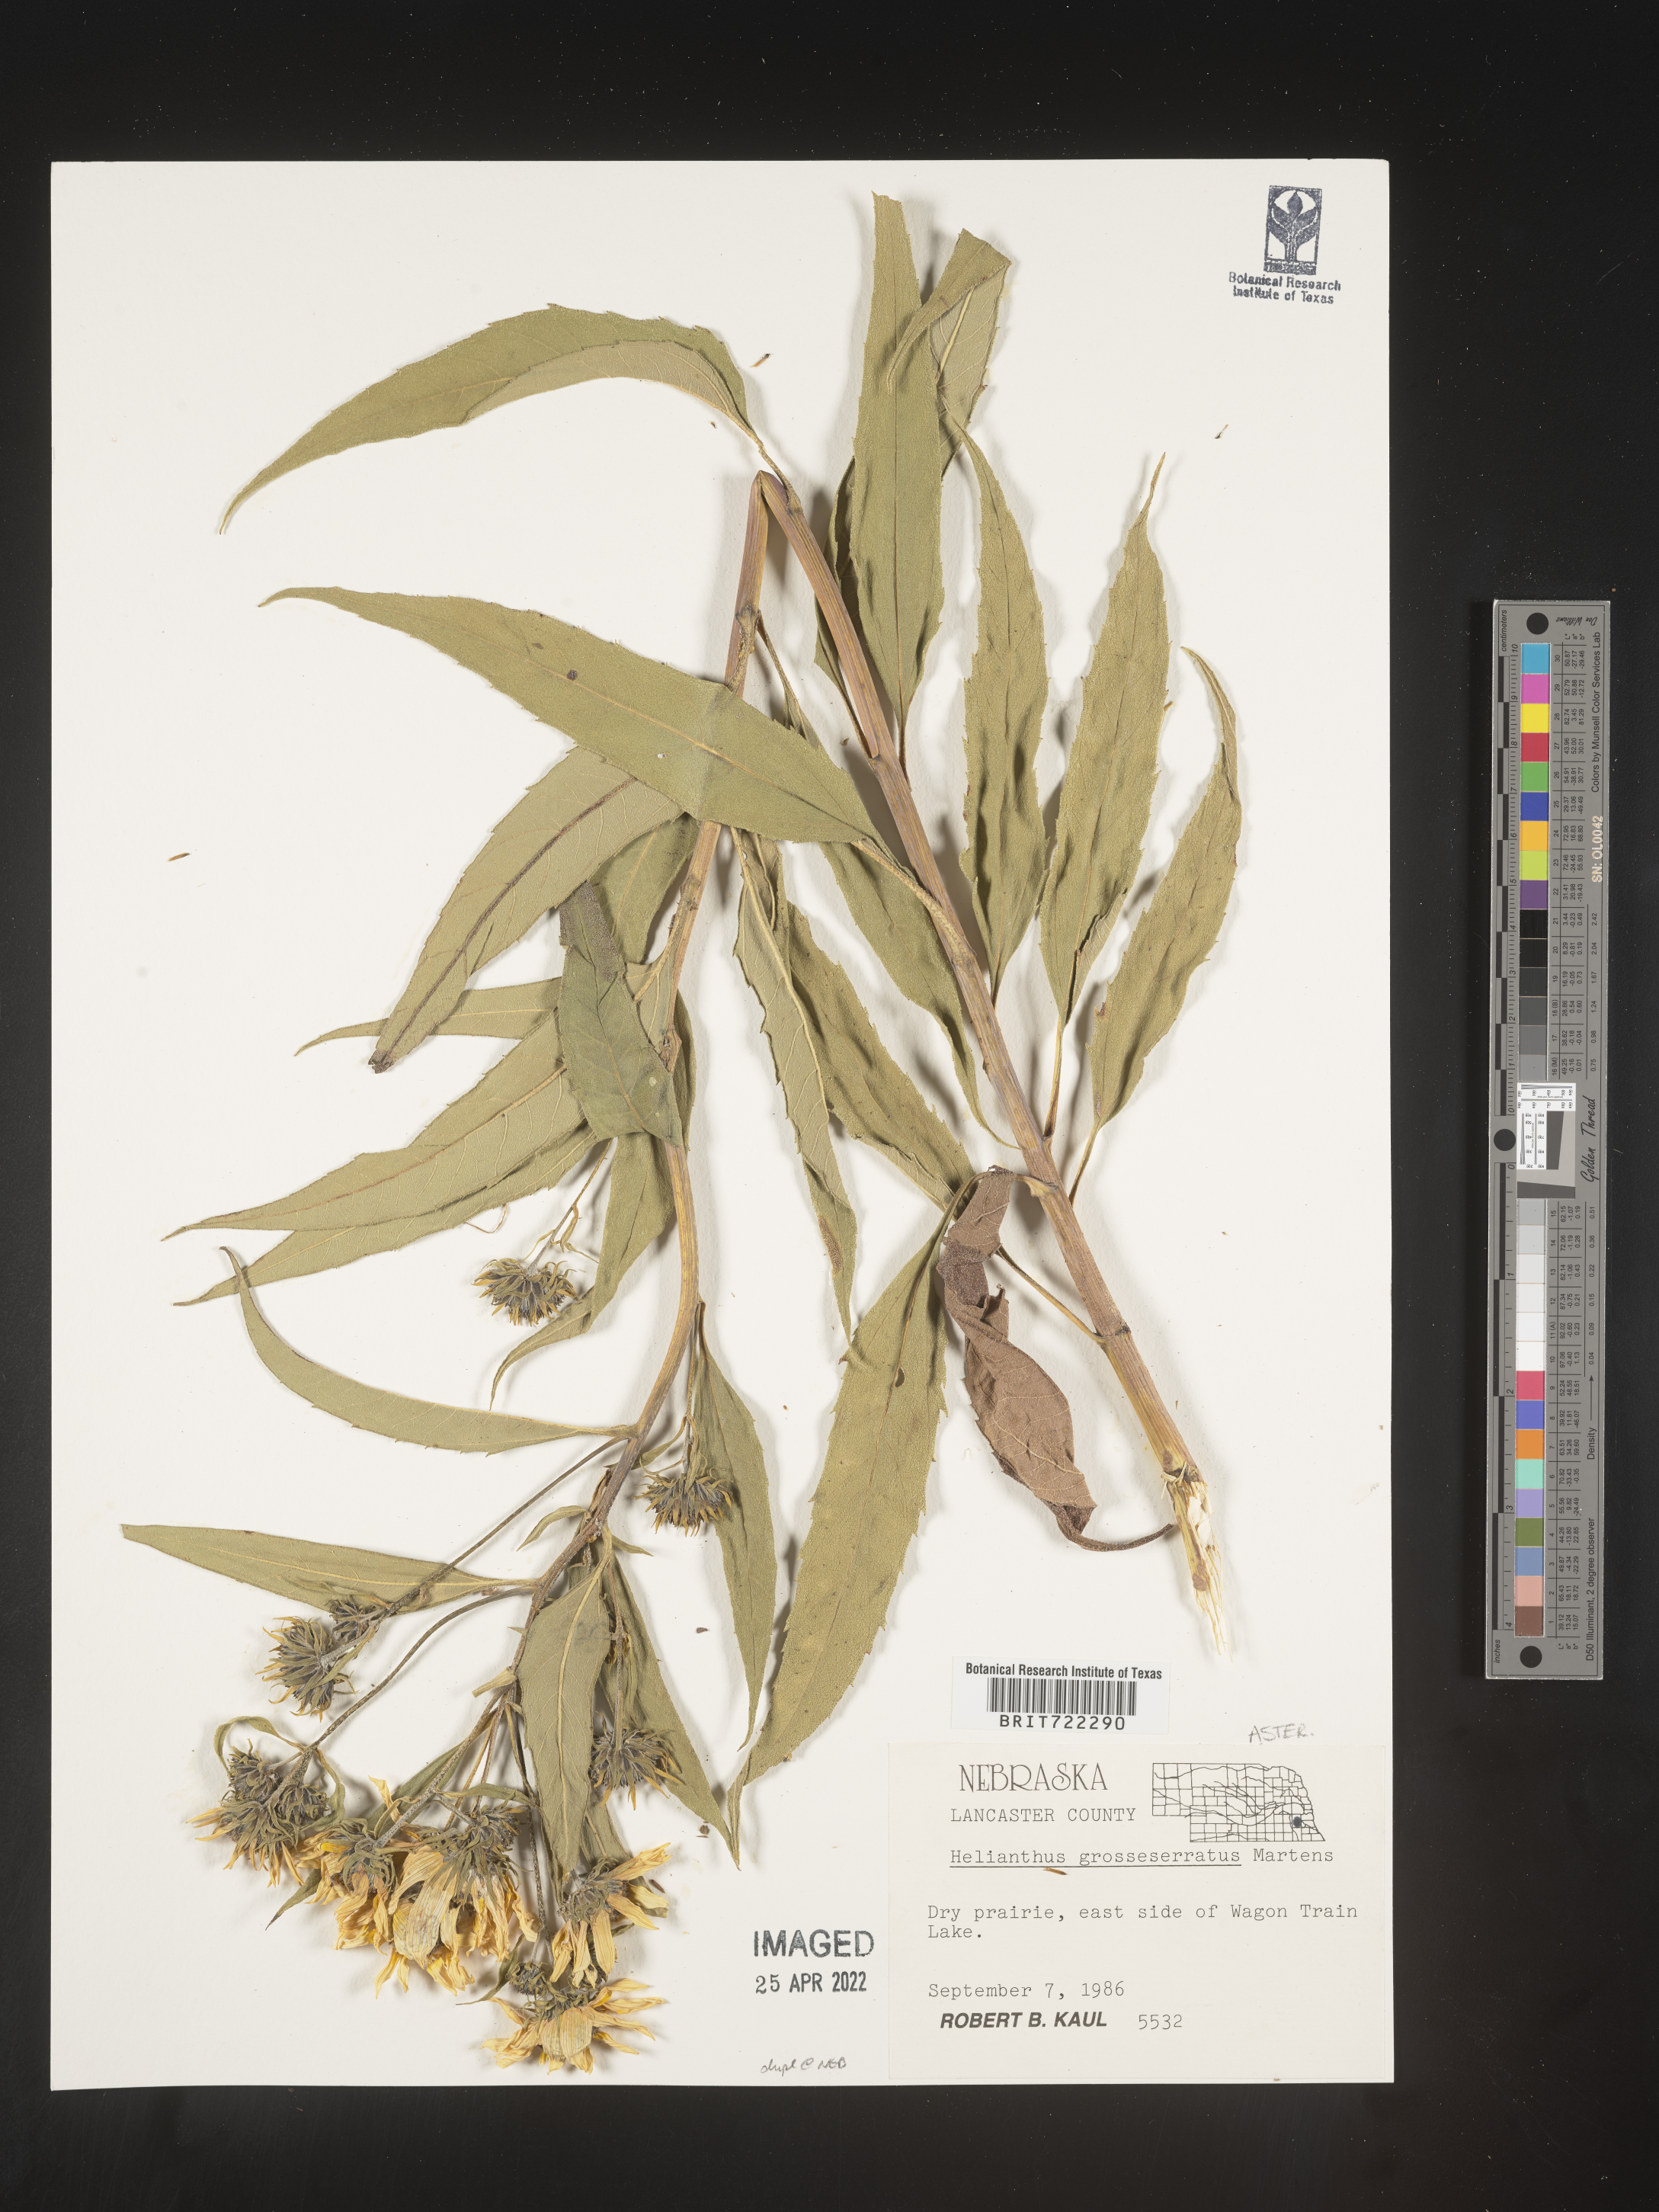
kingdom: Plantae
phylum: Tracheophyta
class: Magnoliopsida
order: Asterales
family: Asteraceae
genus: Helianthus
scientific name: Helianthus grosseserratus
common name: Sawtooth sunflower
